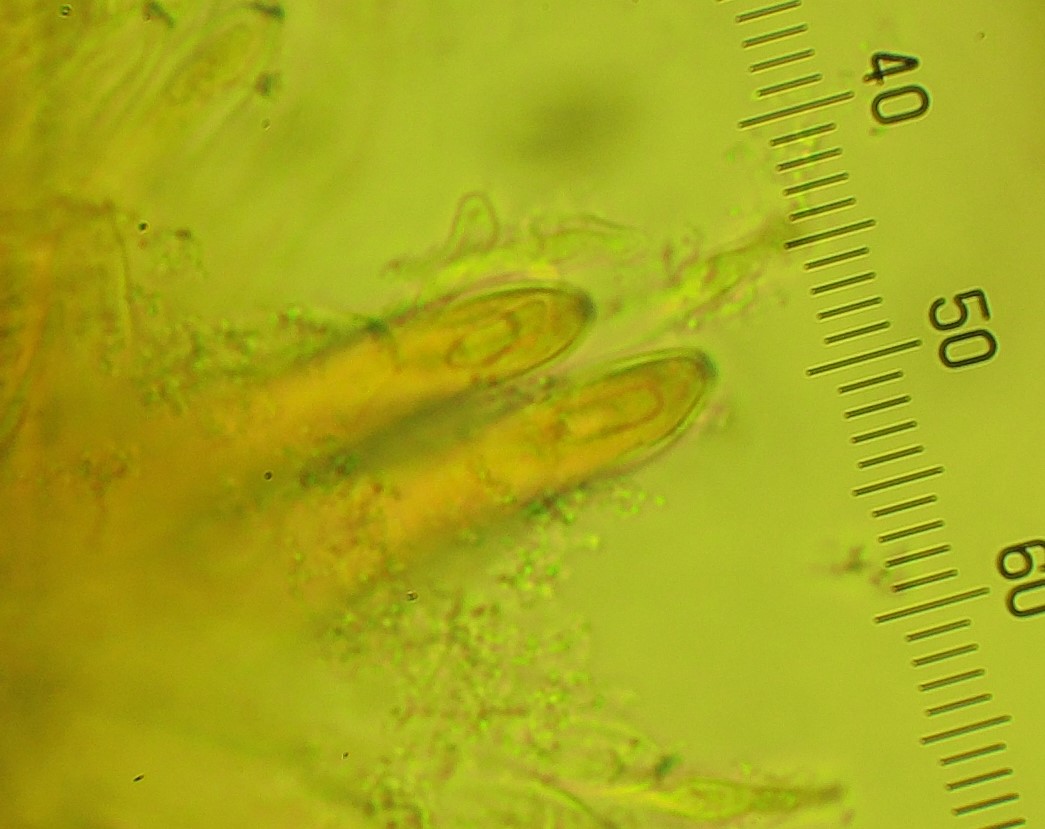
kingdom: Fungi
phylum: Ascomycota
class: Leotiomycetes
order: Helotiales
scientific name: Helotiales
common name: stilkskiveordenen
